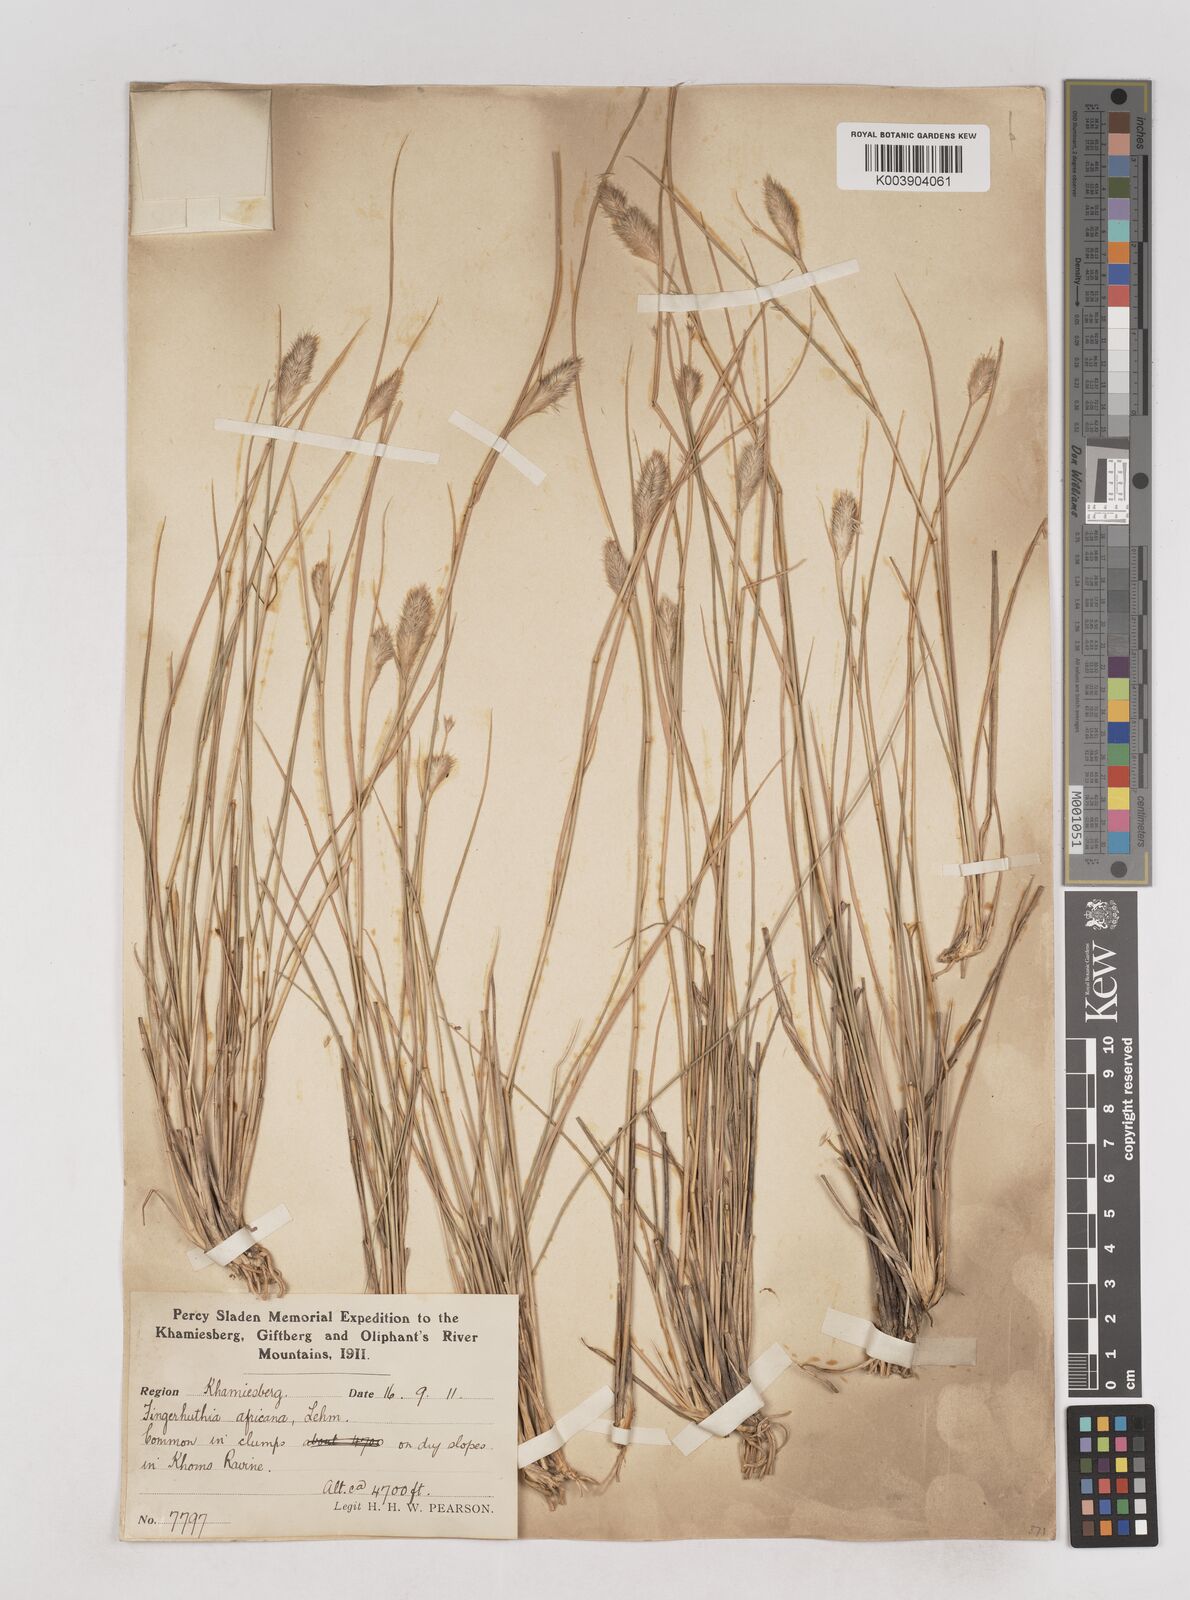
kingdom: Plantae
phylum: Tracheophyta
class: Liliopsida
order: Poales
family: Poaceae
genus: Fingerhuthia
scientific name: Fingerhuthia africana
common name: Zulu fescue
